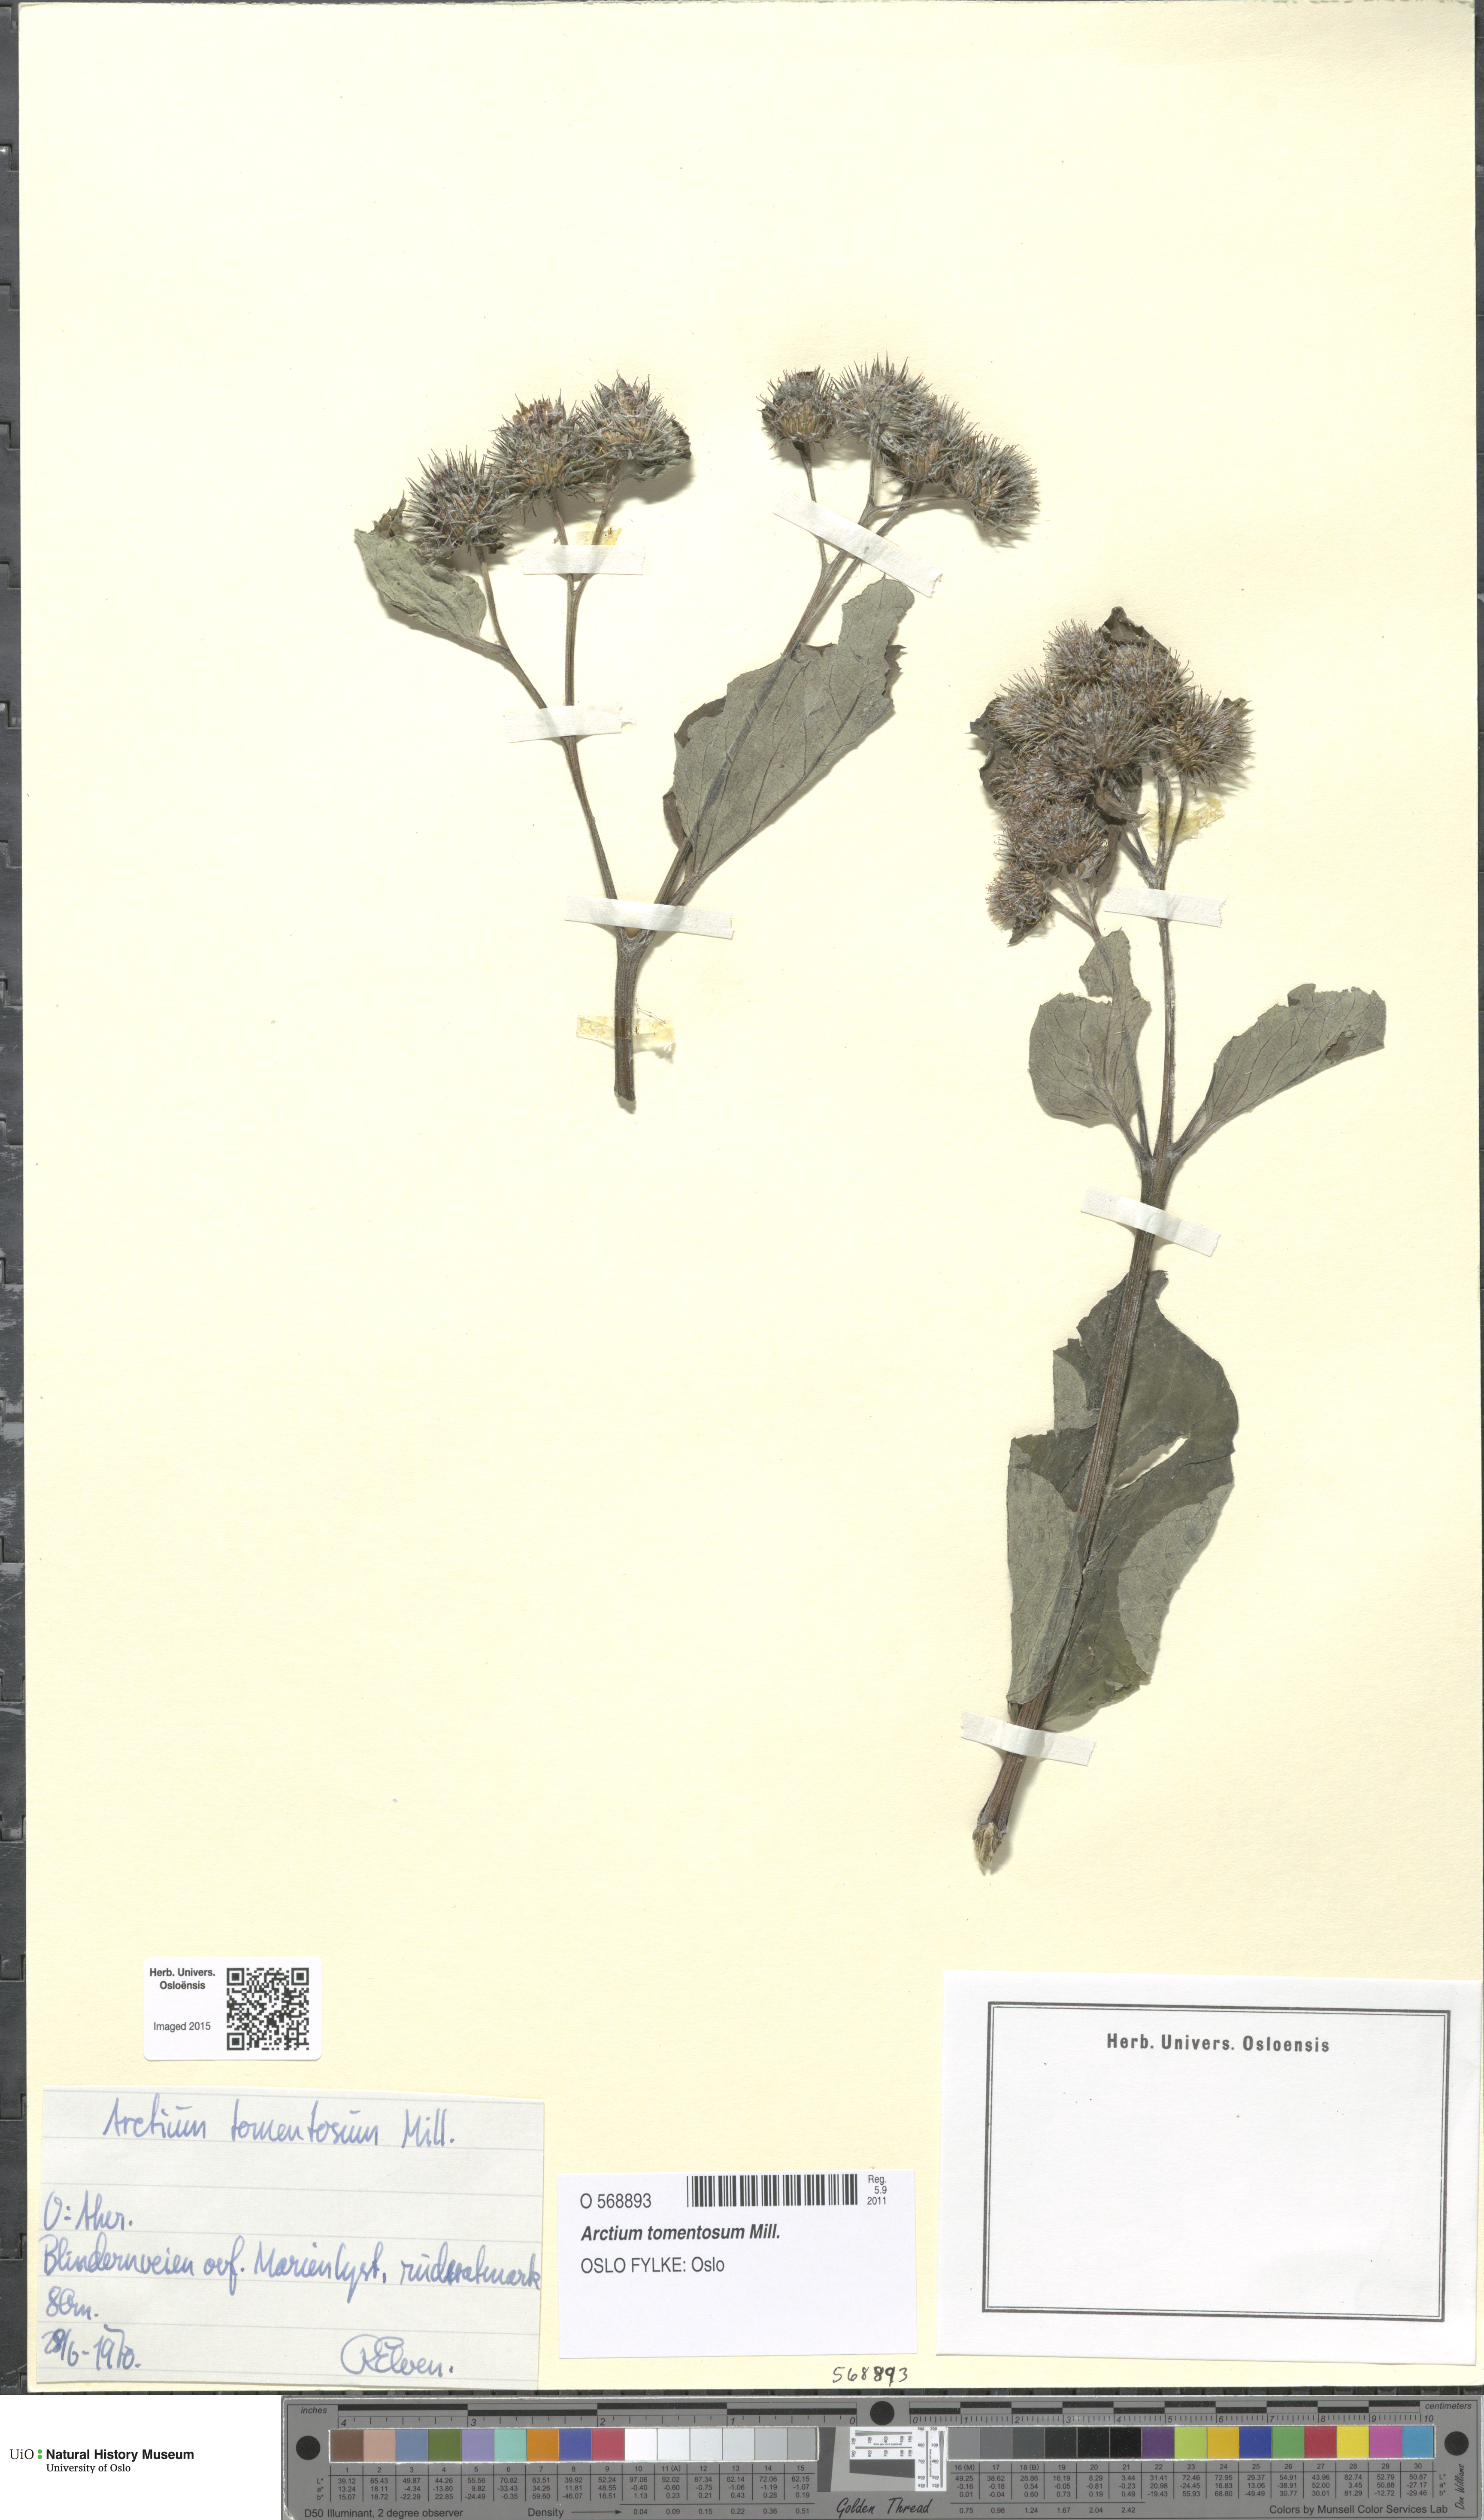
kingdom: Plantae
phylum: Tracheophyta
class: Magnoliopsida
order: Asterales
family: Asteraceae
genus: Arctium
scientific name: Arctium tomentosum
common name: Woolly burdock
